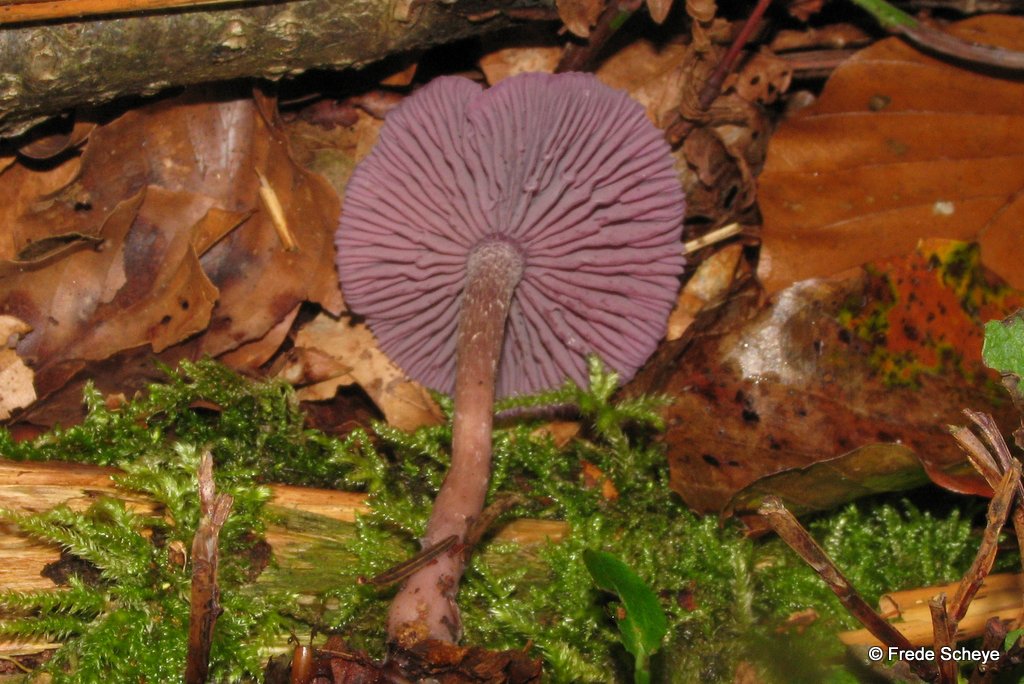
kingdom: Fungi
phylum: Basidiomycota
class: Agaricomycetes
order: Agaricales
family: Hydnangiaceae
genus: Laccaria
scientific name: Laccaria amethystina
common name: violet ametysthat
